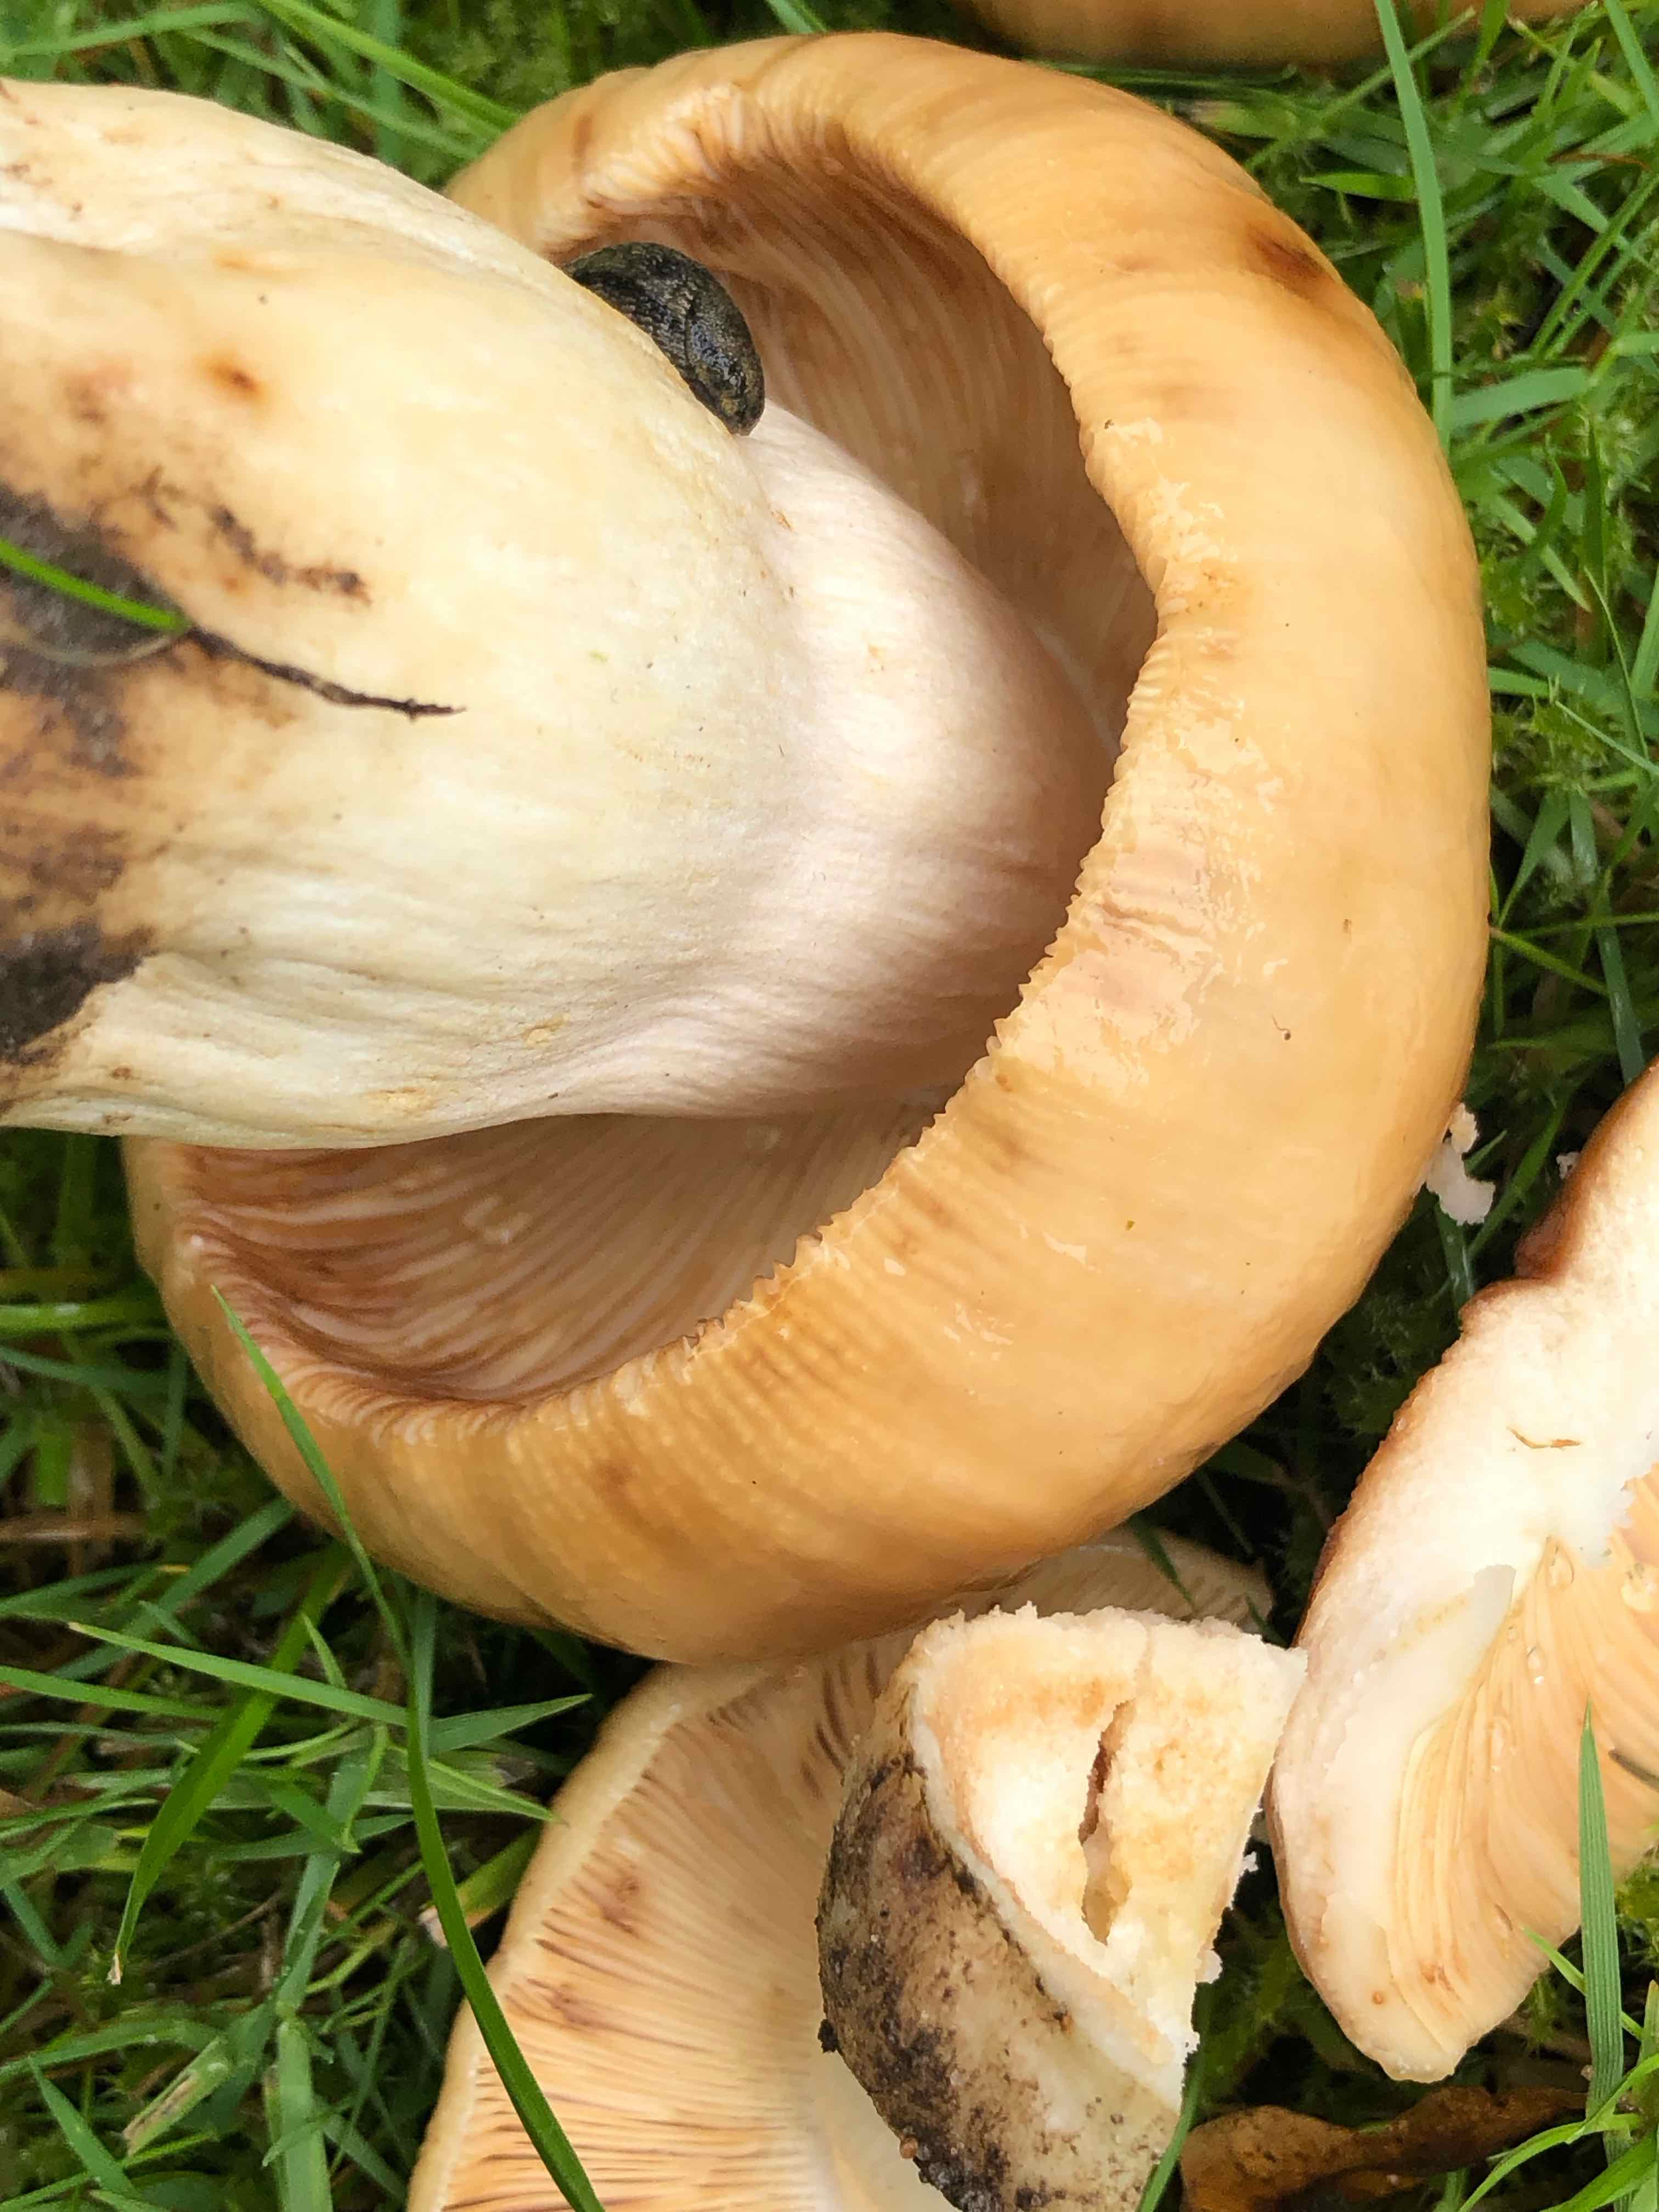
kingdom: Fungi
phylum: Basidiomycota
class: Agaricomycetes
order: Russulales
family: Russulaceae
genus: Russula
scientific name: Russula foetens
